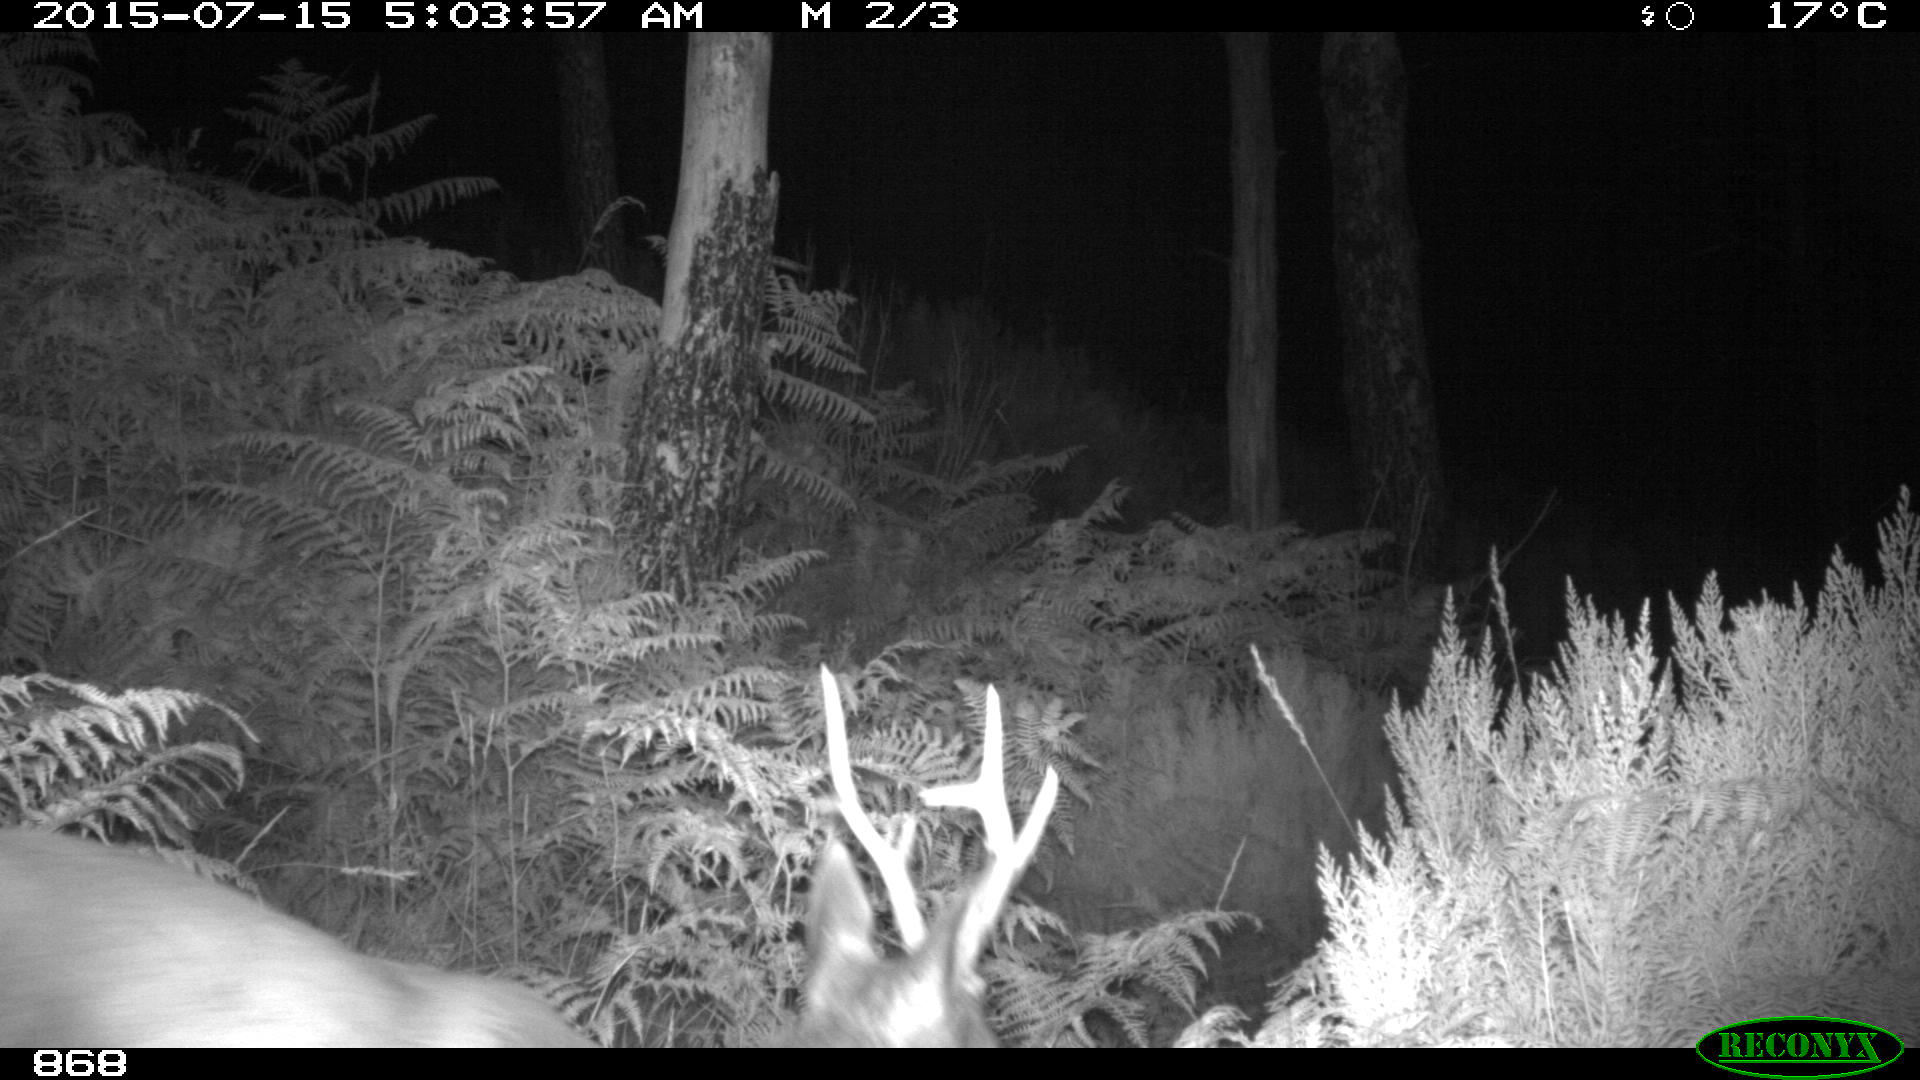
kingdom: Animalia
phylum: Chordata
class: Mammalia
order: Artiodactyla
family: Cervidae
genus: Capreolus
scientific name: Capreolus capreolus
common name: Western roe deer
